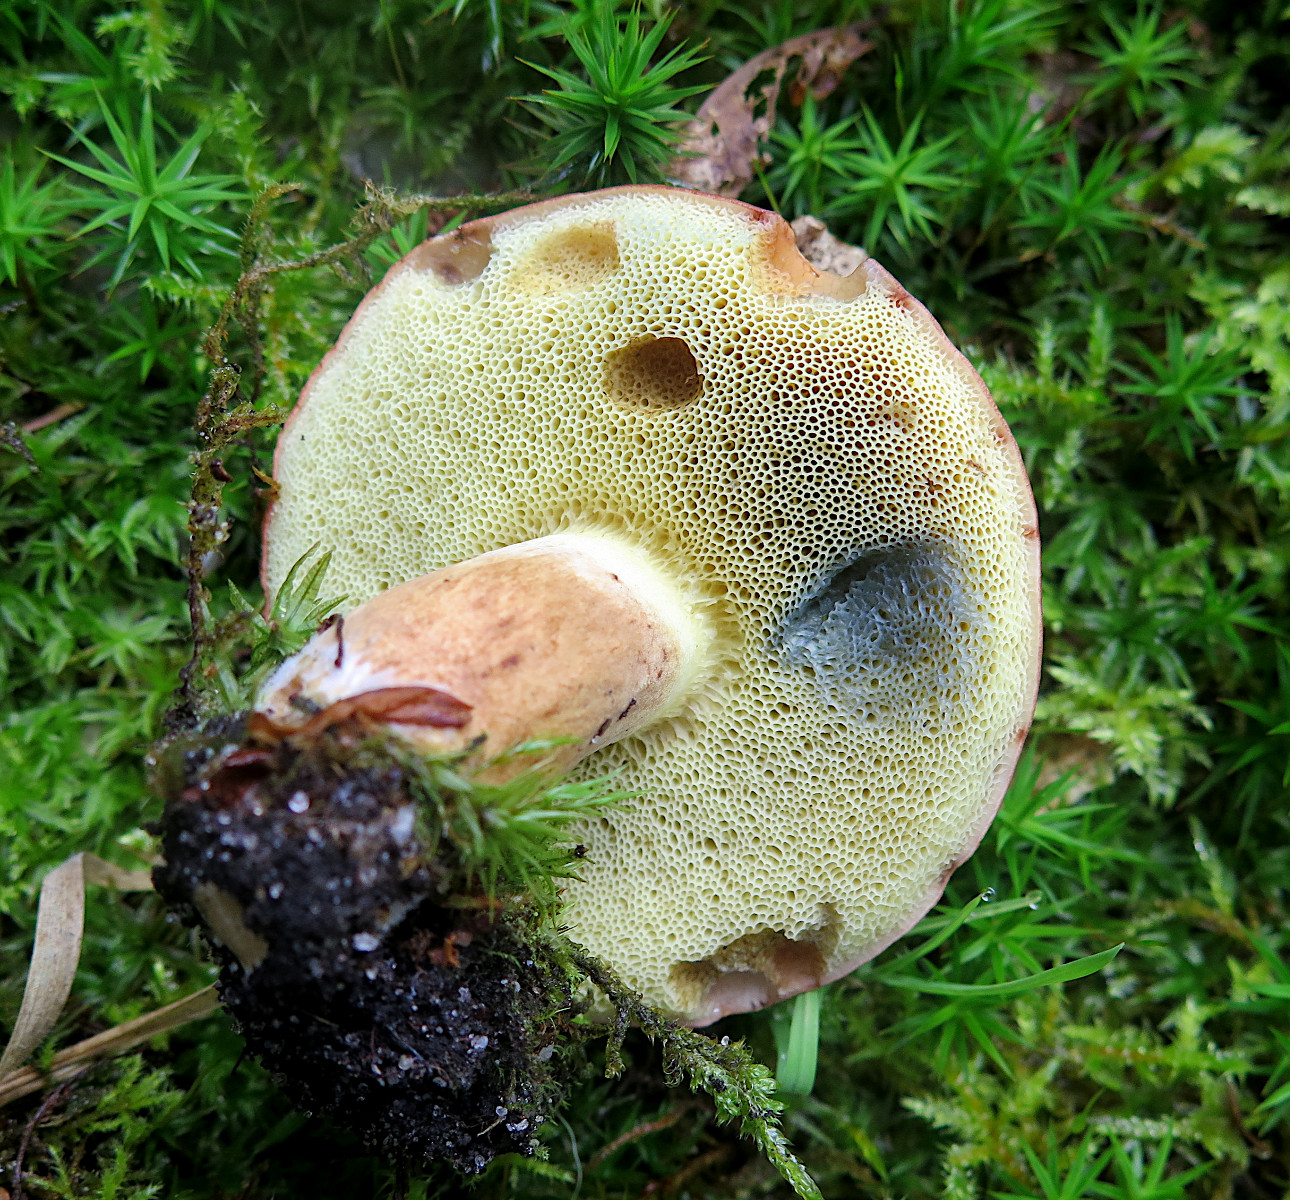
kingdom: Fungi
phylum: Basidiomycota
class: Agaricomycetes
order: Boletales
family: Boletaceae
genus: Imleria
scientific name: Imleria badia
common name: brunstokket rørhat
